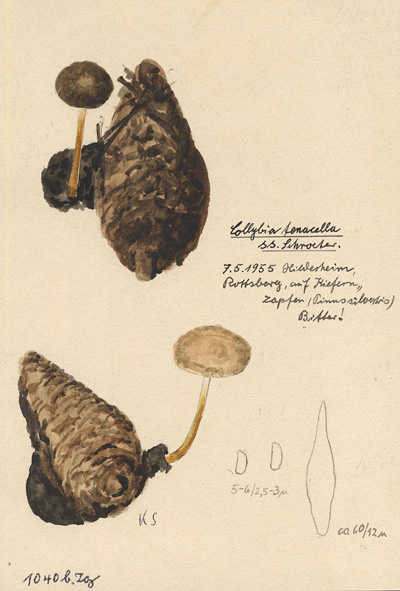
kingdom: Fungi
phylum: Basidiomycota
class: Agaricomycetes
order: Agaricales
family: Physalacriaceae
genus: Strobilurus
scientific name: Strobilurus tenacellus
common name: Pinecone cap
